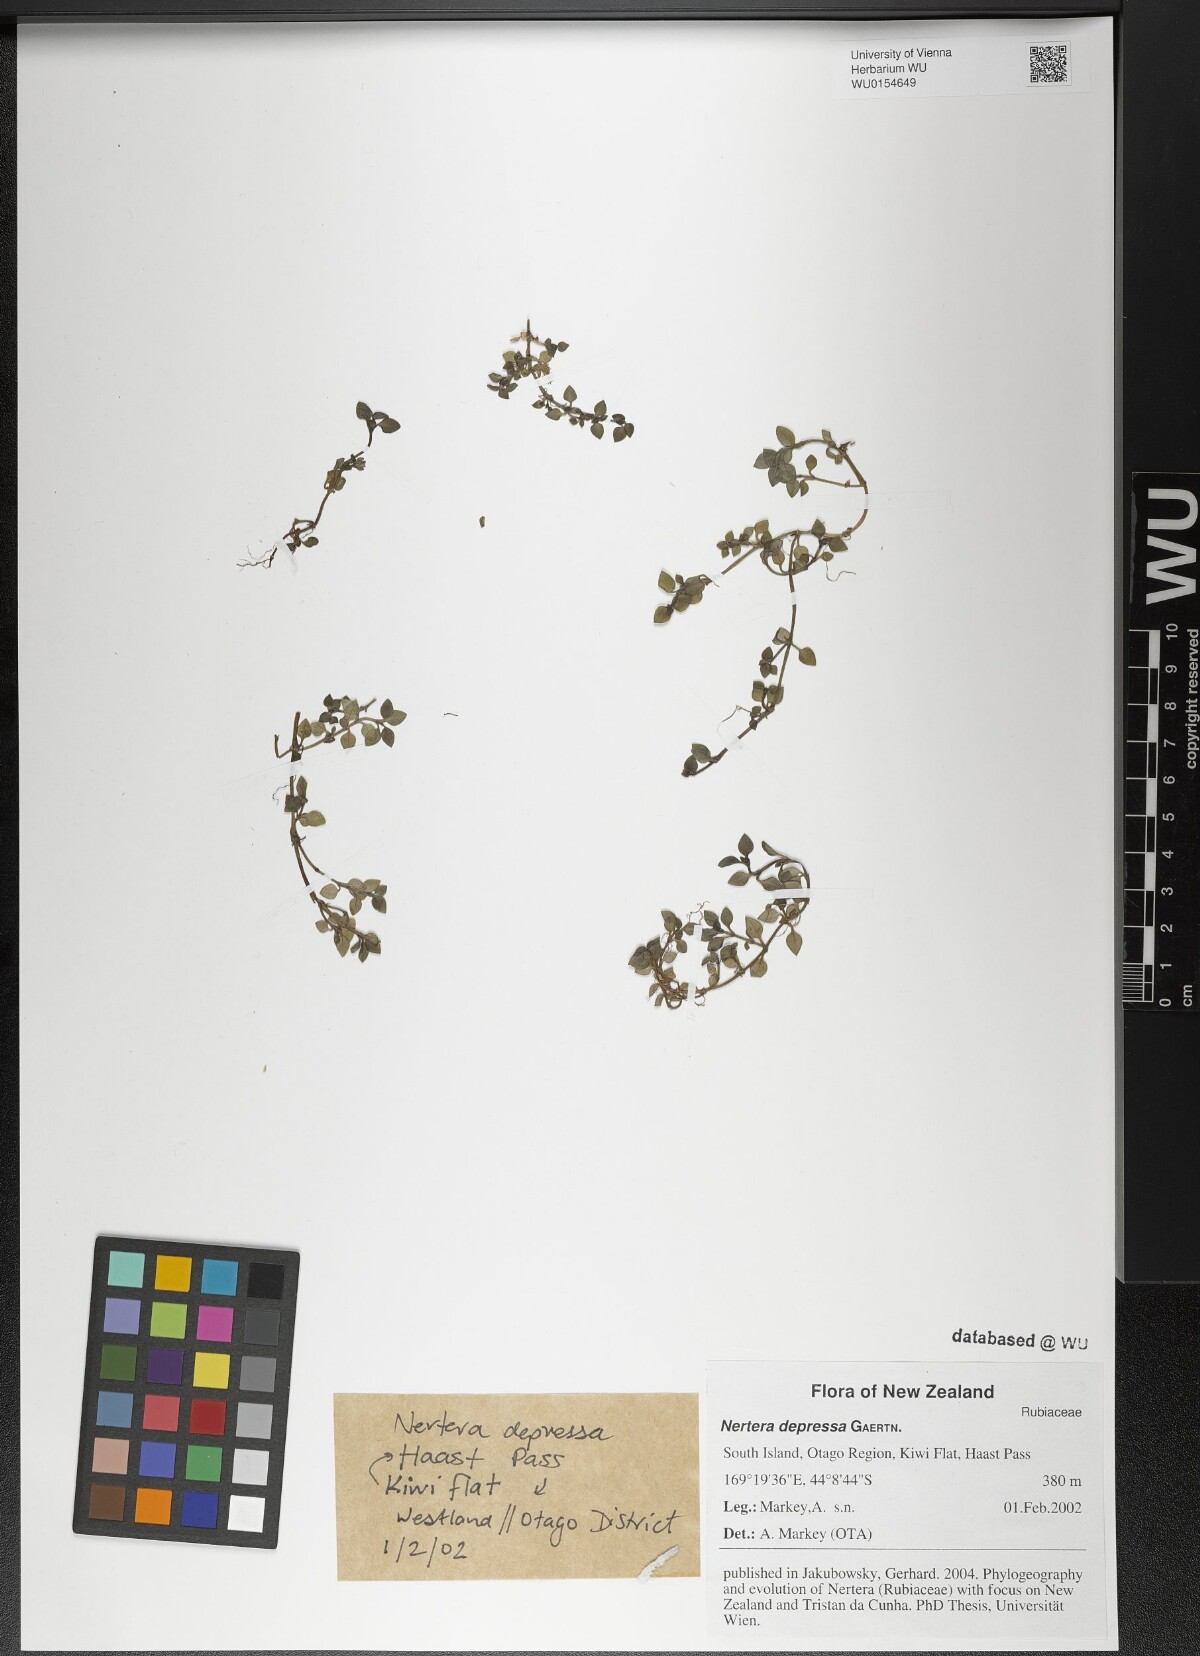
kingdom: Plantae
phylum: Tracheophyta
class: Magnoliopsida
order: Gentianales
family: Rubiaceae
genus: Nertera
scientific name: Nertera granadensis
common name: Beadplant
